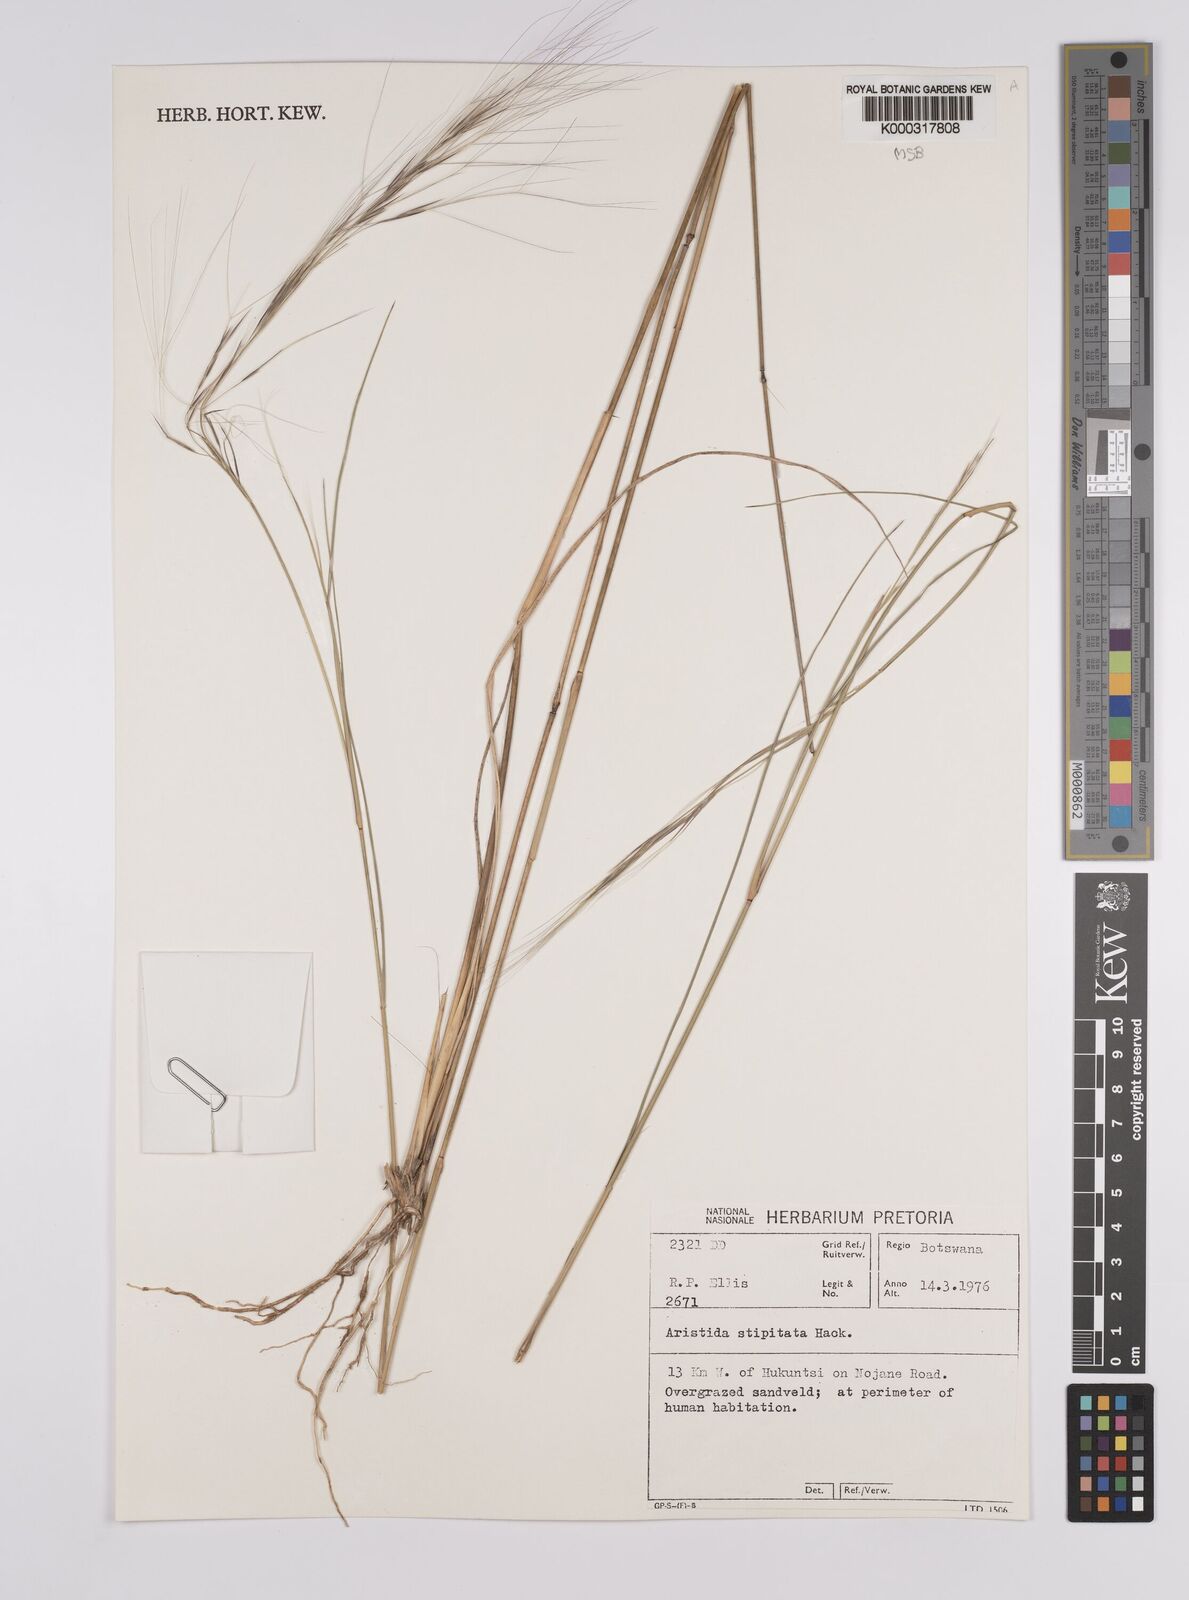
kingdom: Plantae
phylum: Tracheophyta
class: Liliopsida
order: Poales
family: Poaceae
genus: Aristida
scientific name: Aristida stipitata
